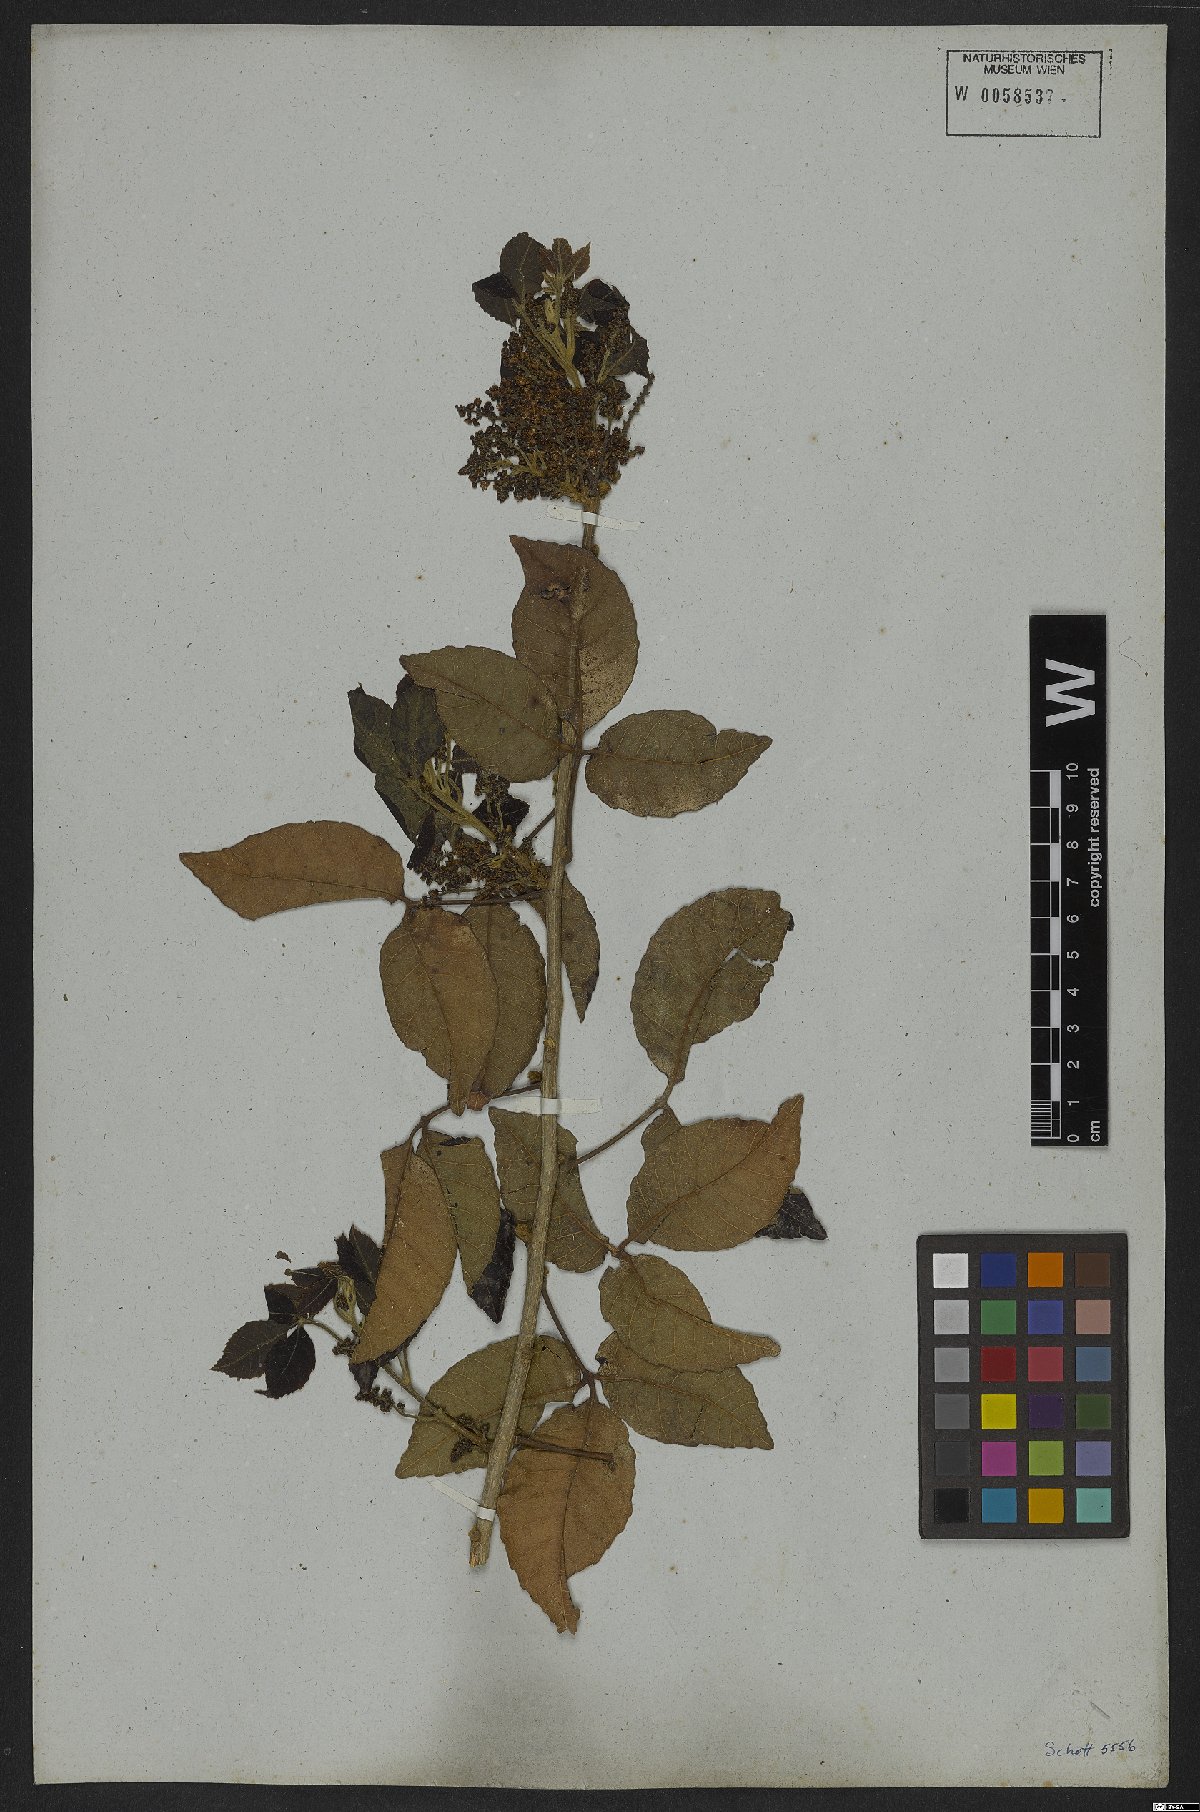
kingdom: Plantae
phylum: Tracheophyta
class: Magnoliopsida
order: Sapindales
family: Sapindaceae
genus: Allophylus
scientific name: Allophylus puberulus
